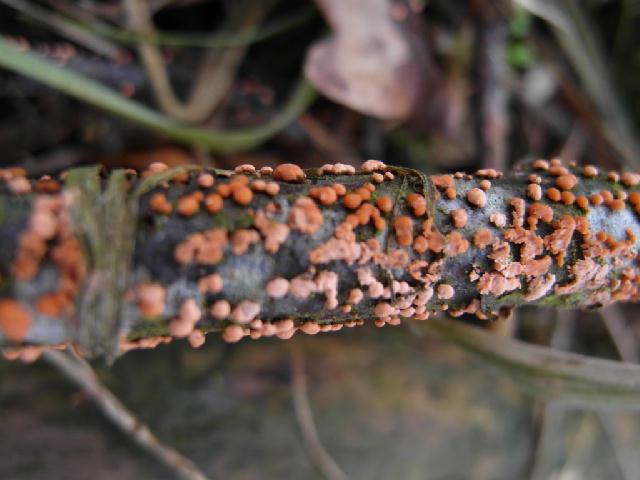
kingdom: Fungi
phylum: Ascomycota
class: Sordariomycetes
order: Hypocreales
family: Nectriaceae
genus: Nectria
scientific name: Nectria cinnabarina
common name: almindelig cinnobersvamp
